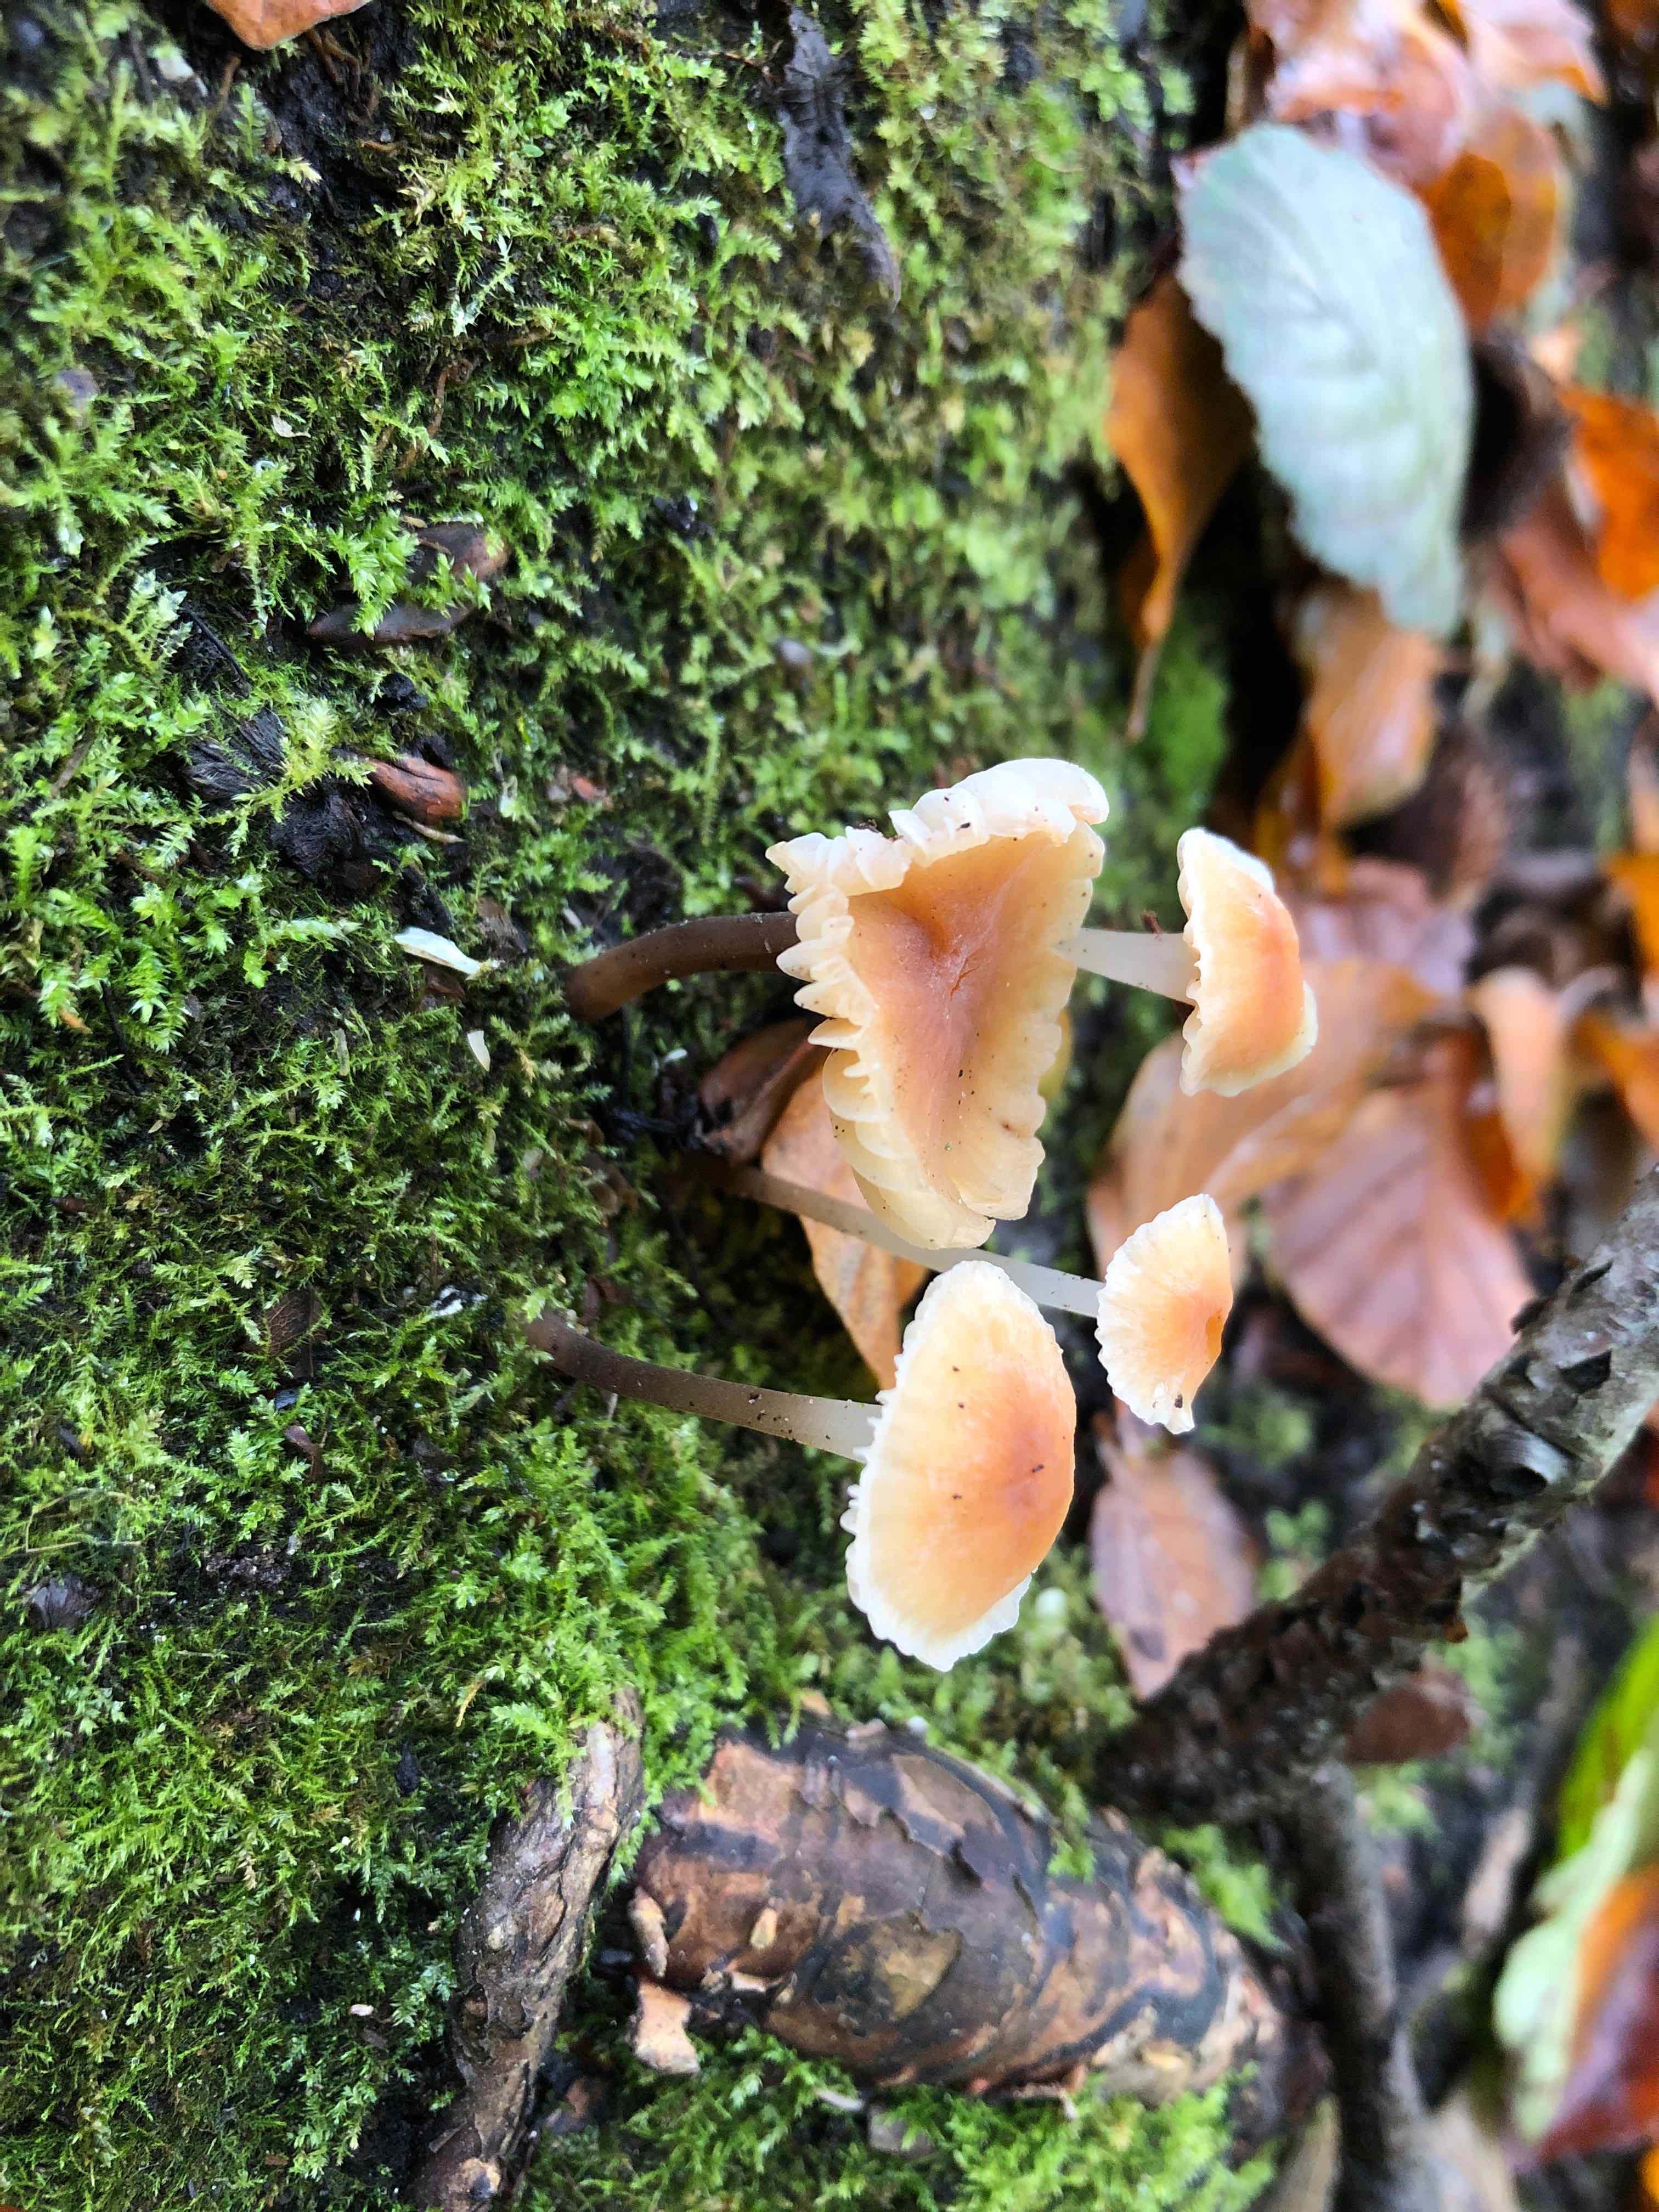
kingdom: Fungi
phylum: Basidiomycota
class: Agaricomycetes
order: Agaricales
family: Mycenaceae
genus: Atheniella
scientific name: Atheniella leptophylla
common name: abrikos-huesvamp
